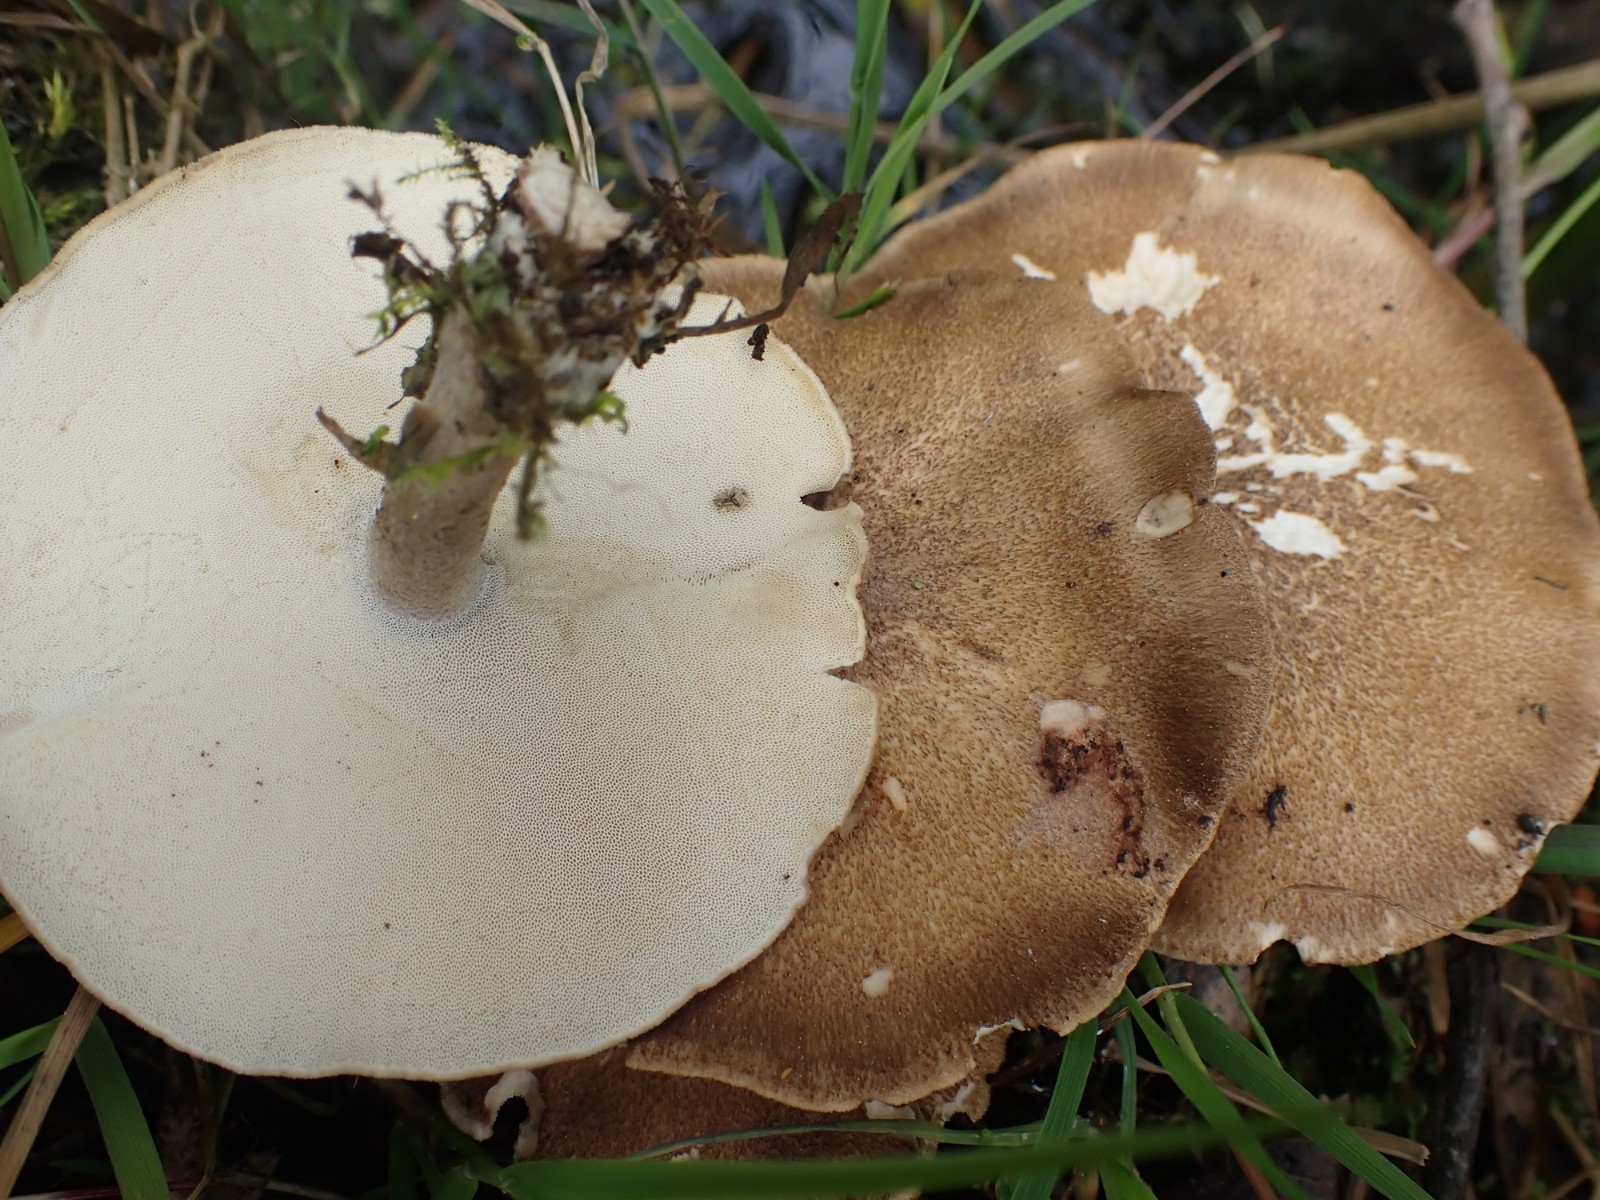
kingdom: Fungi
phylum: Basidiomycota
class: Agaricomycetes
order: Polyporales
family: Polyporaceae
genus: Lentinus
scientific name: Lentinus substrictus
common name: forårs-stilkporesvamp
